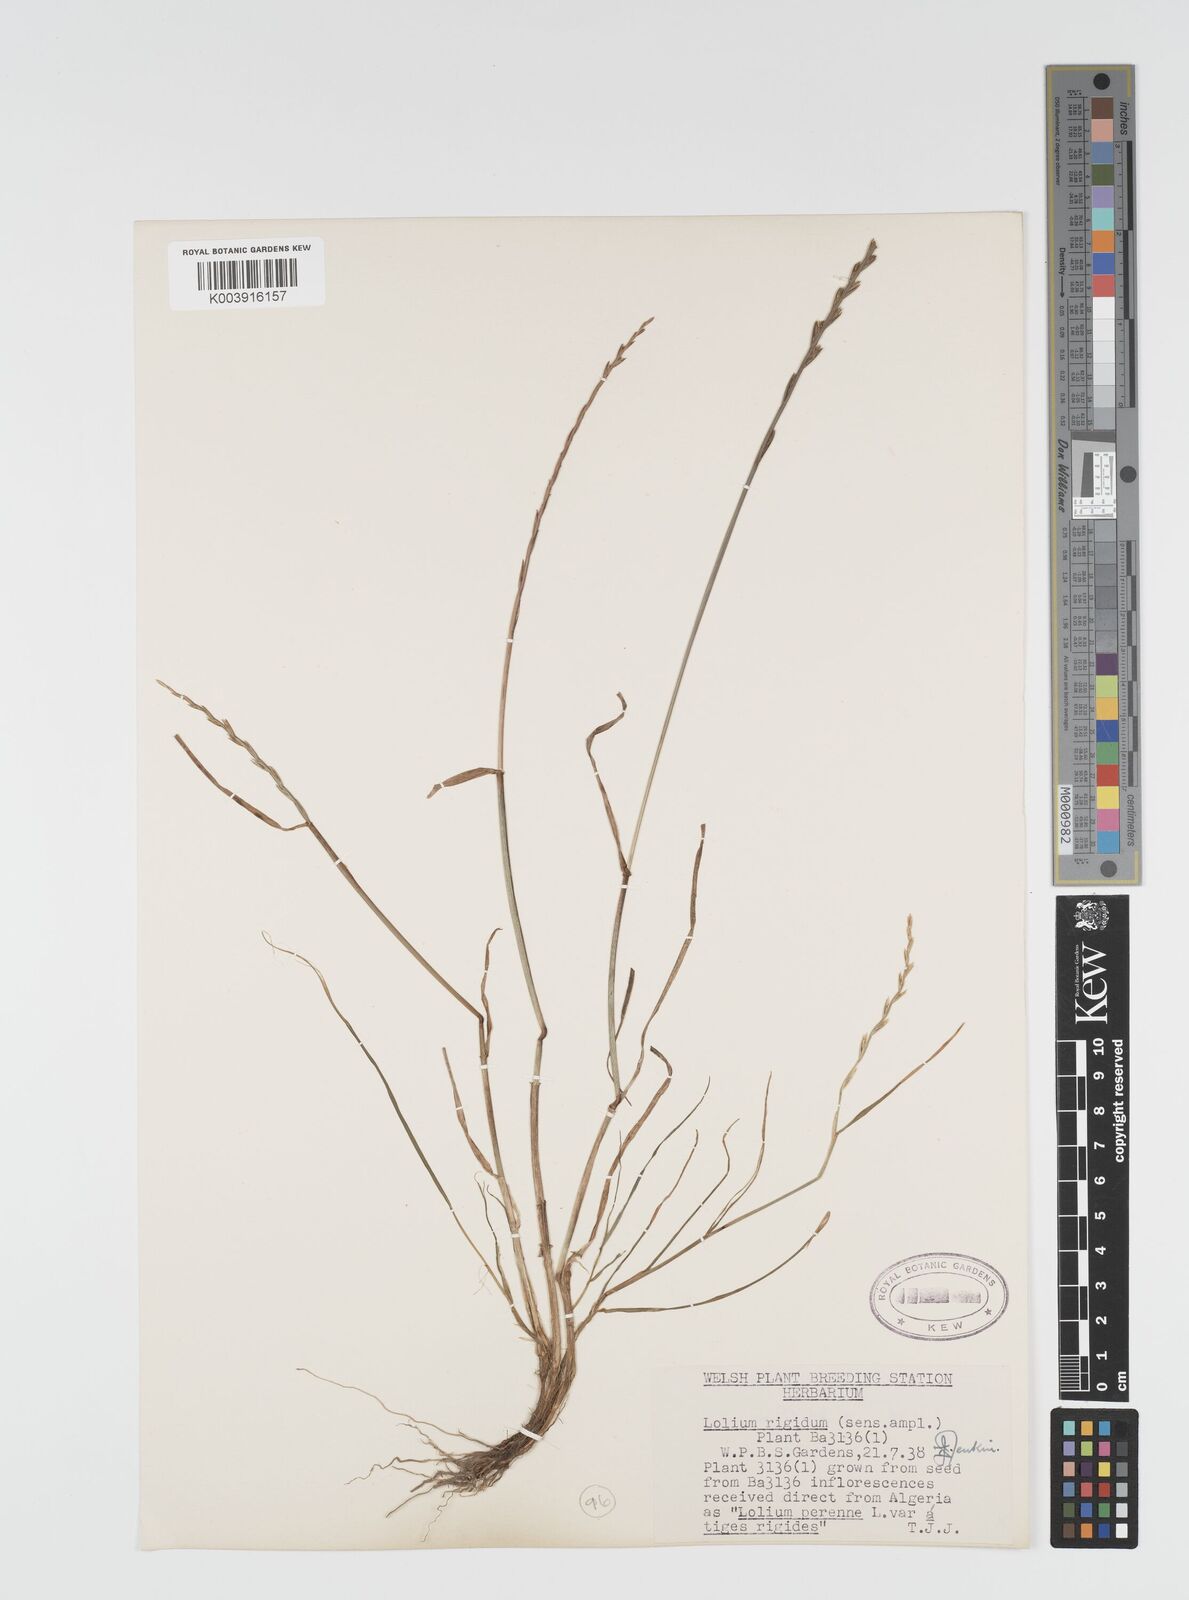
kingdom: Plantae
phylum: Tracheophyta
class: Liliopsida
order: Poales
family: Poaceae
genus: Lolium
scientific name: Lolium rigidum
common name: Wimmera ryegrass
